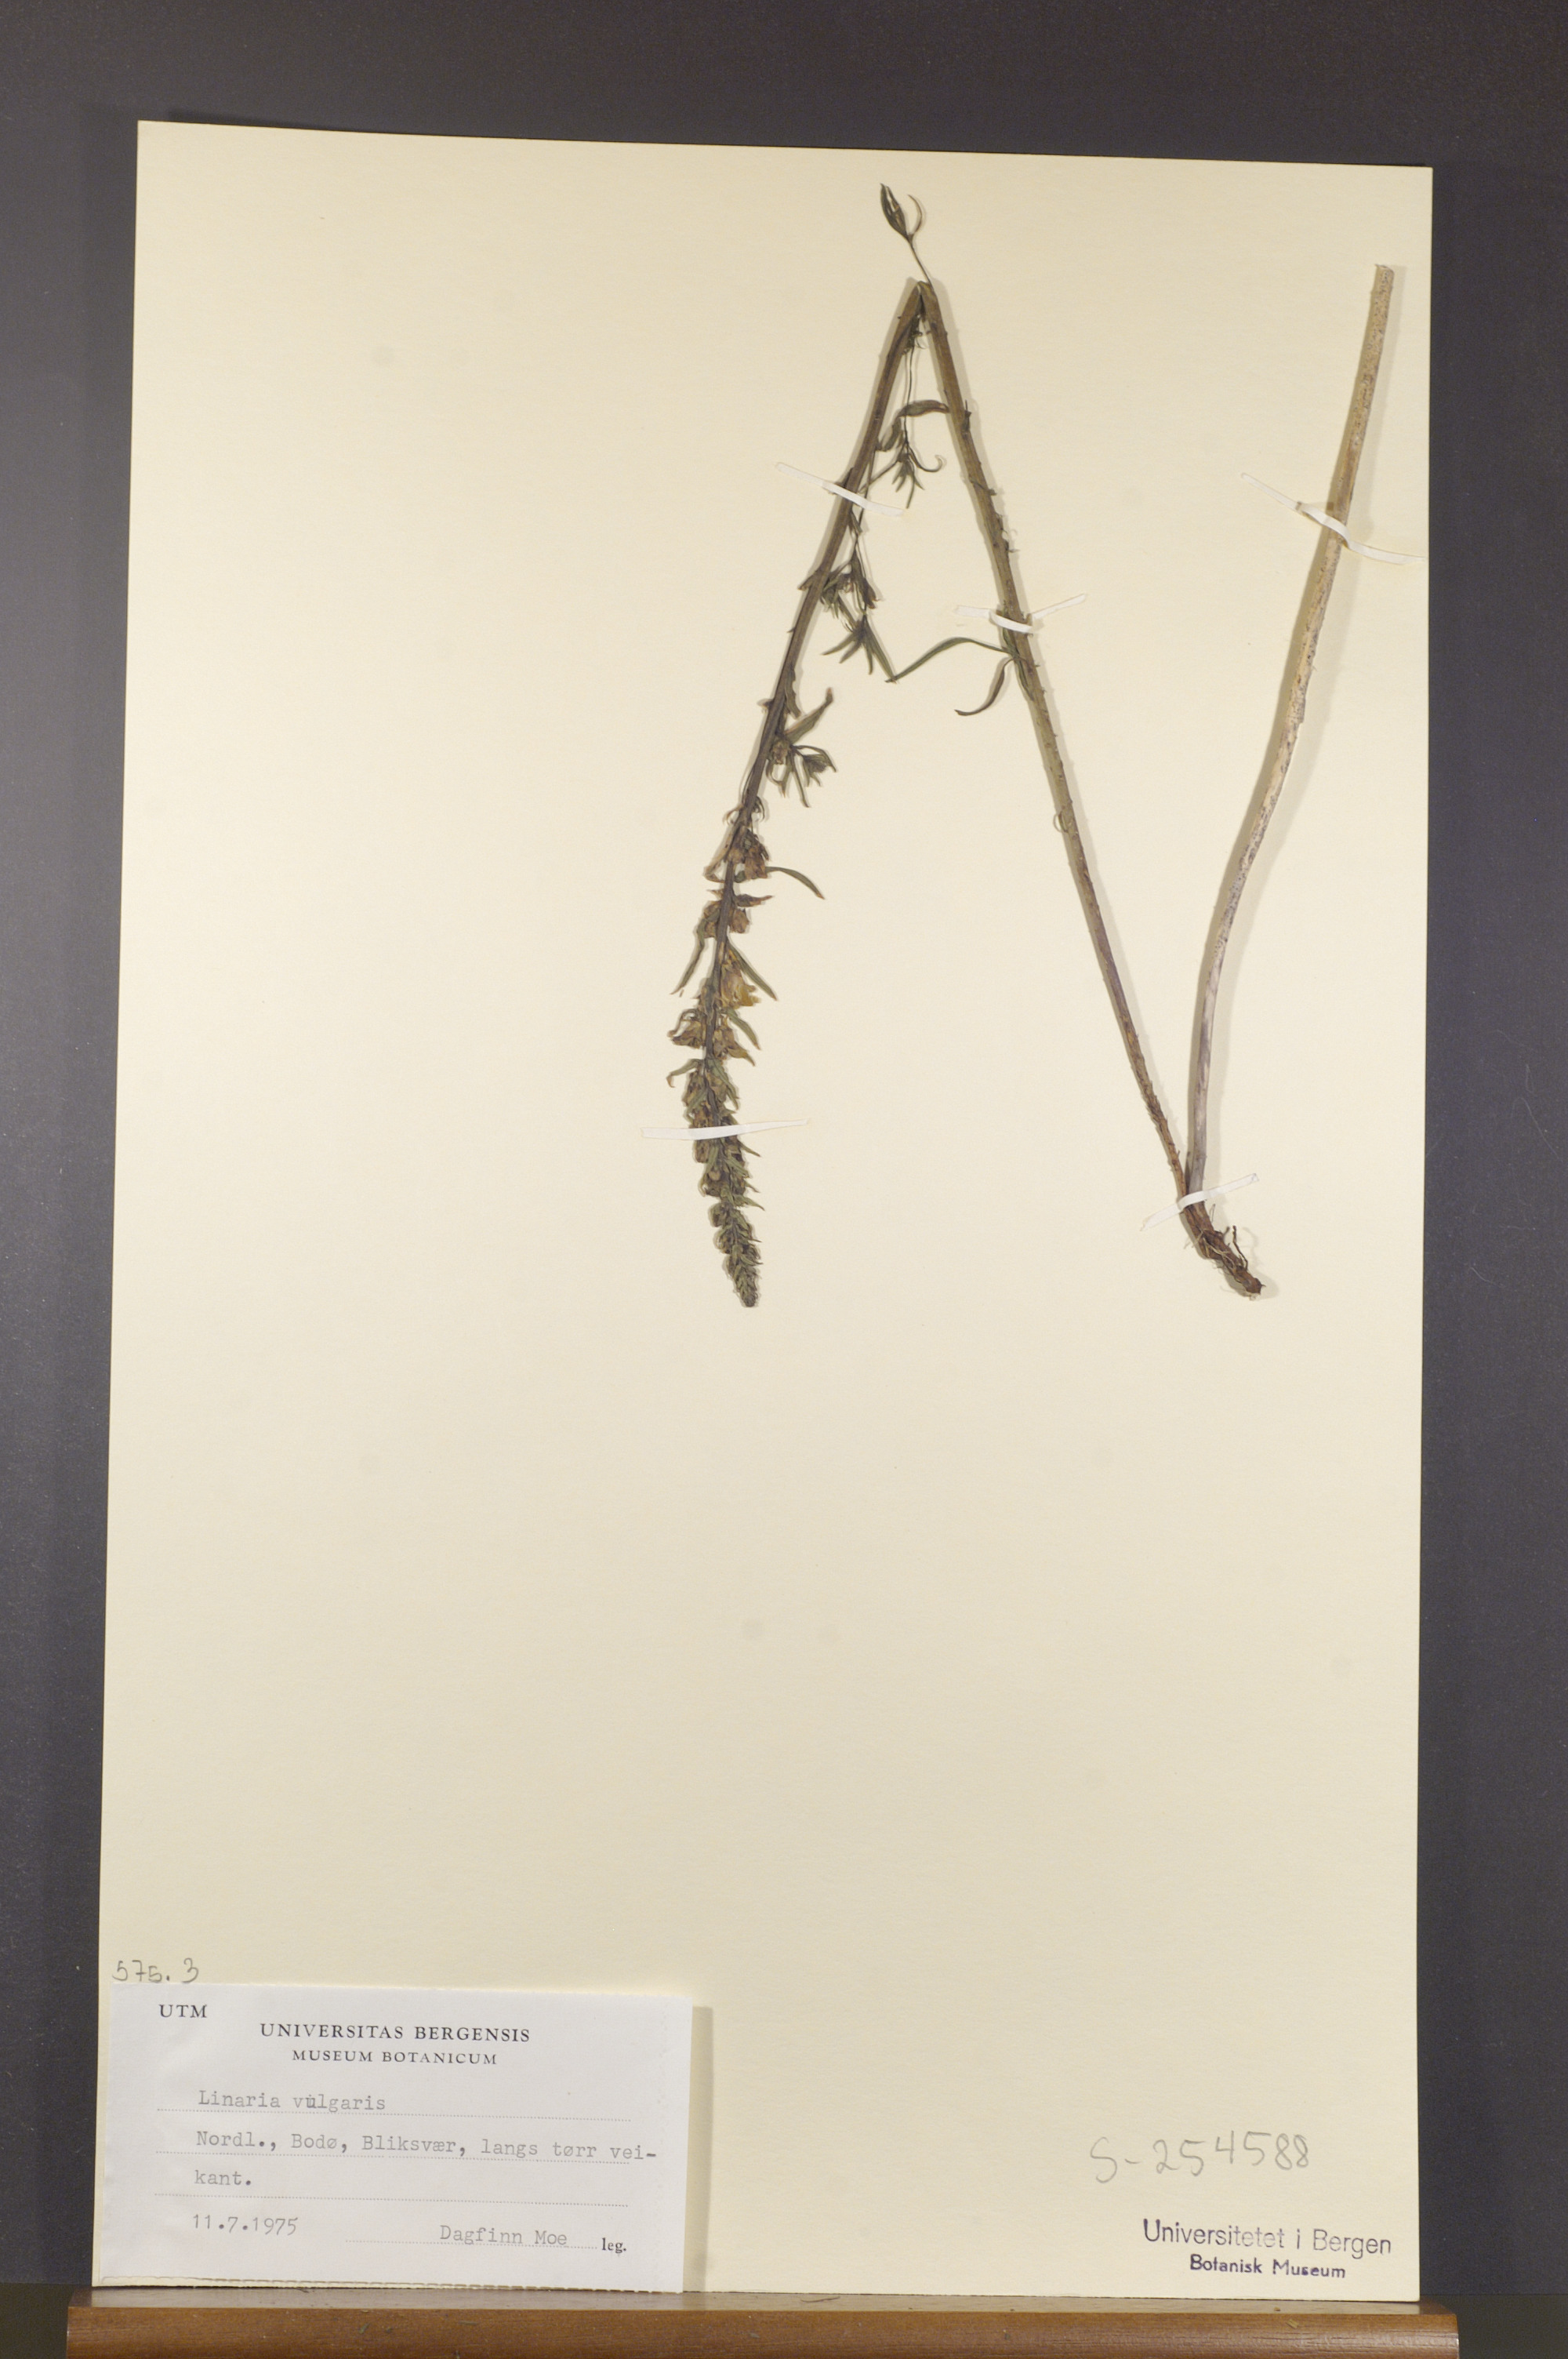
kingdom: Plantae
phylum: Tracheophyta
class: Magnoliopsida
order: Lamiales
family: Plantaginaceae
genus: Linaria
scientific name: Linaria vulgaris
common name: Butter and eggs
